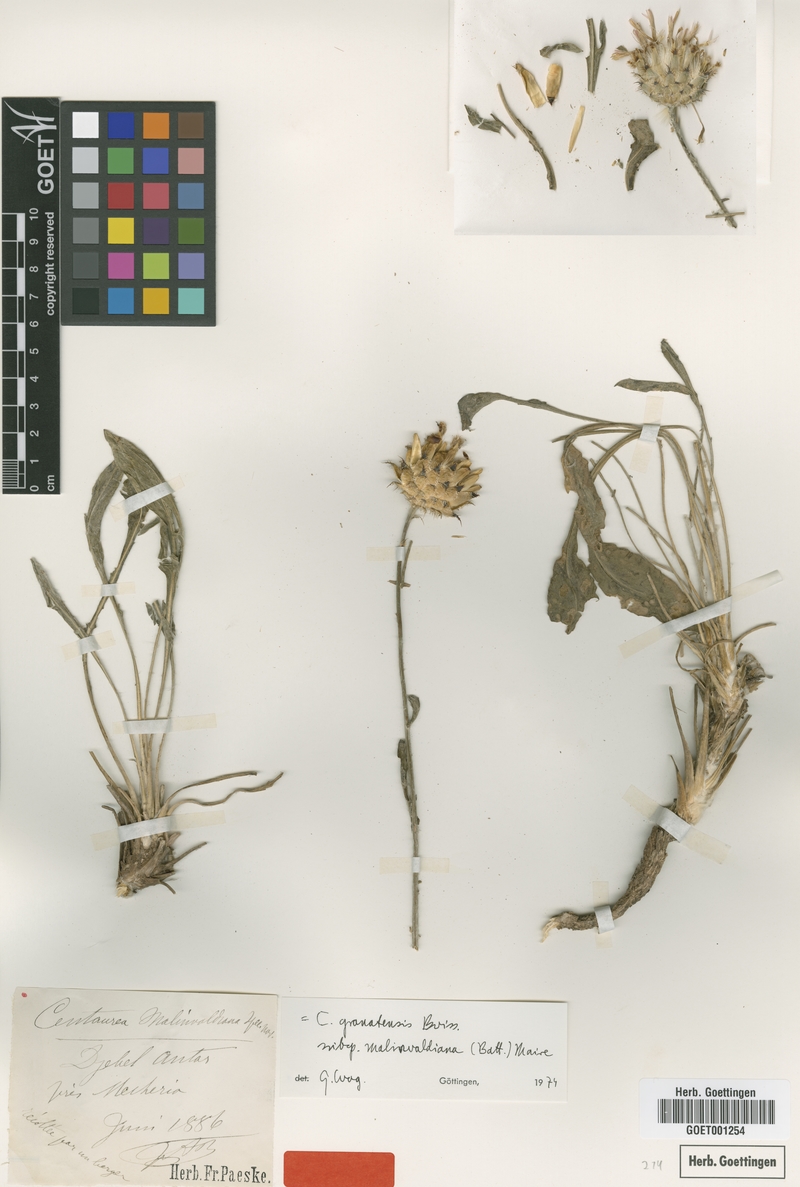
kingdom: Plantae
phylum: Tracheophyta
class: Magnoliopsida
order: Asterales
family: Asteraceae
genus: Centaurea
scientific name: Centaurea malinvaldiana
